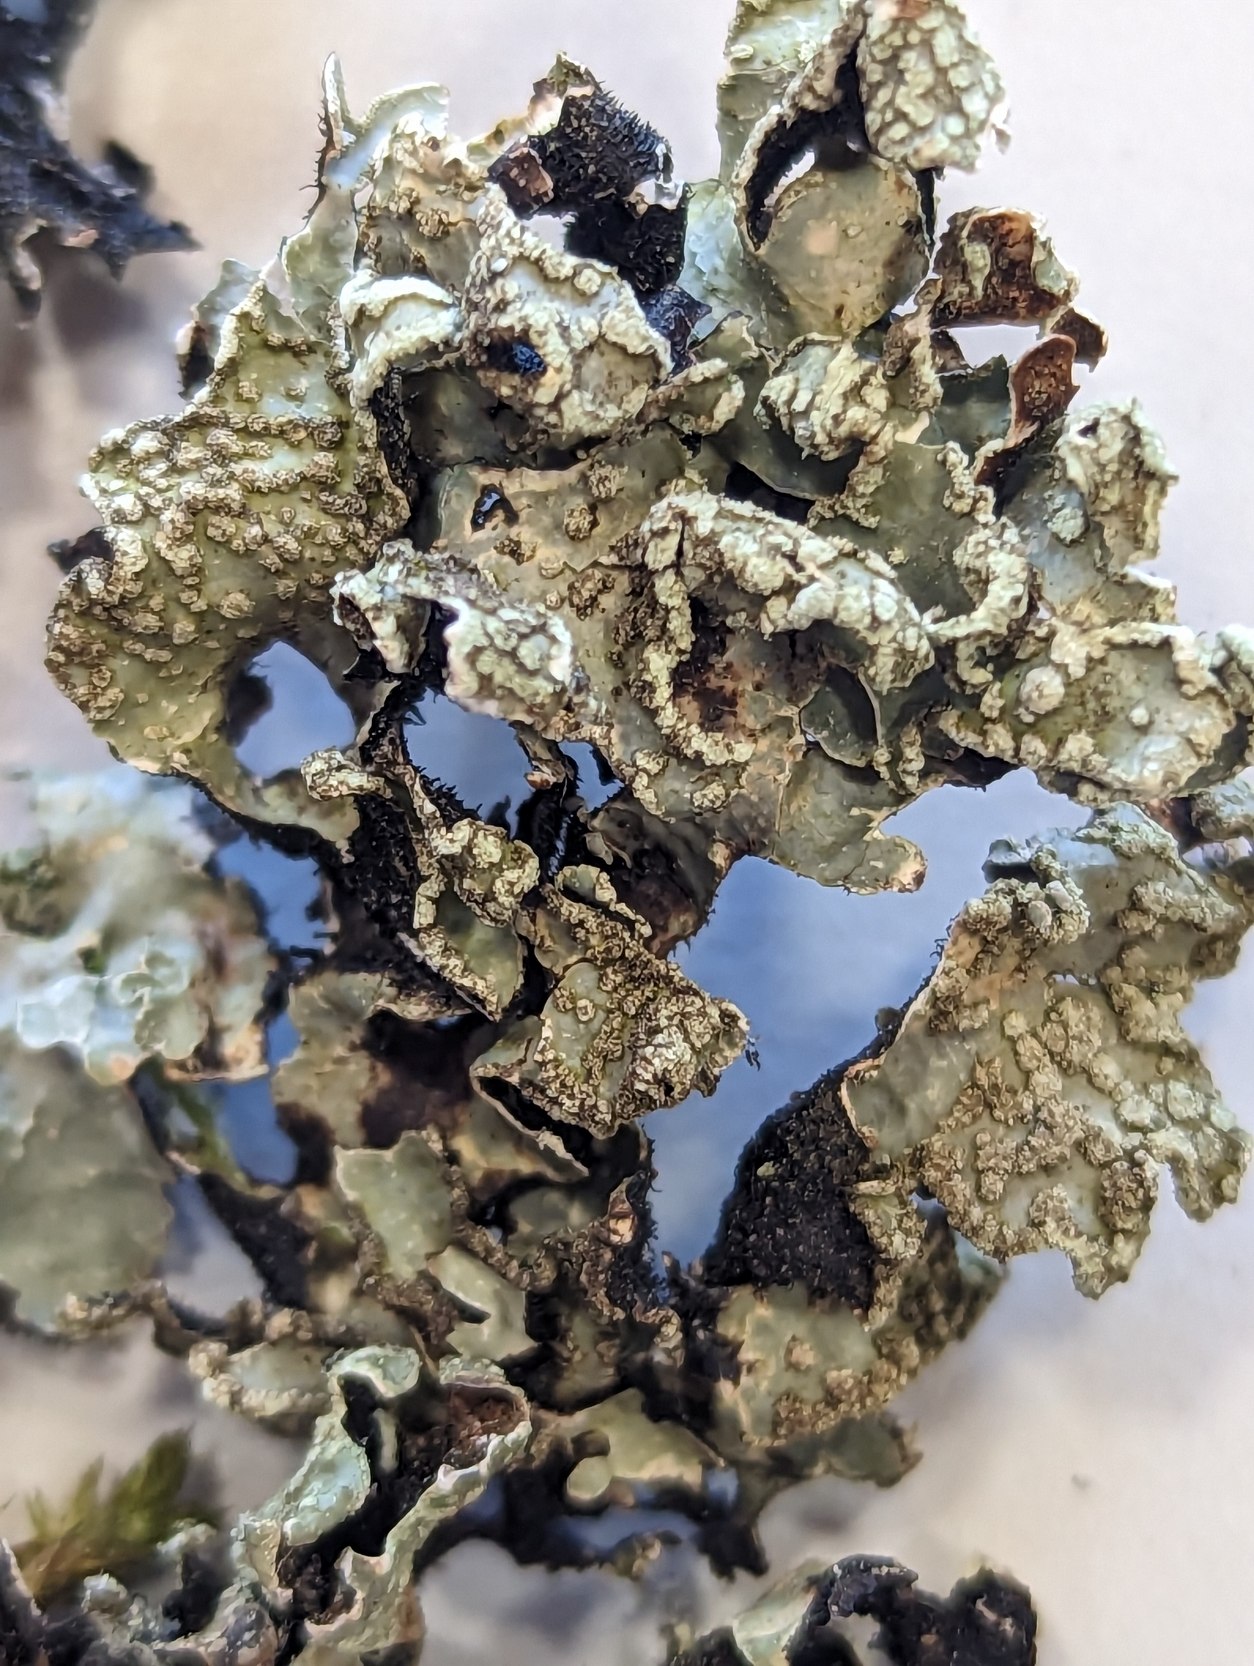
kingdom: Fungi
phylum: Ascomycota
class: Lecanoromycetes
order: Lecanorales
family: Parmeliaceae
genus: Parmelia
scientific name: Parmelia sulcata
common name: Rynket skållav
